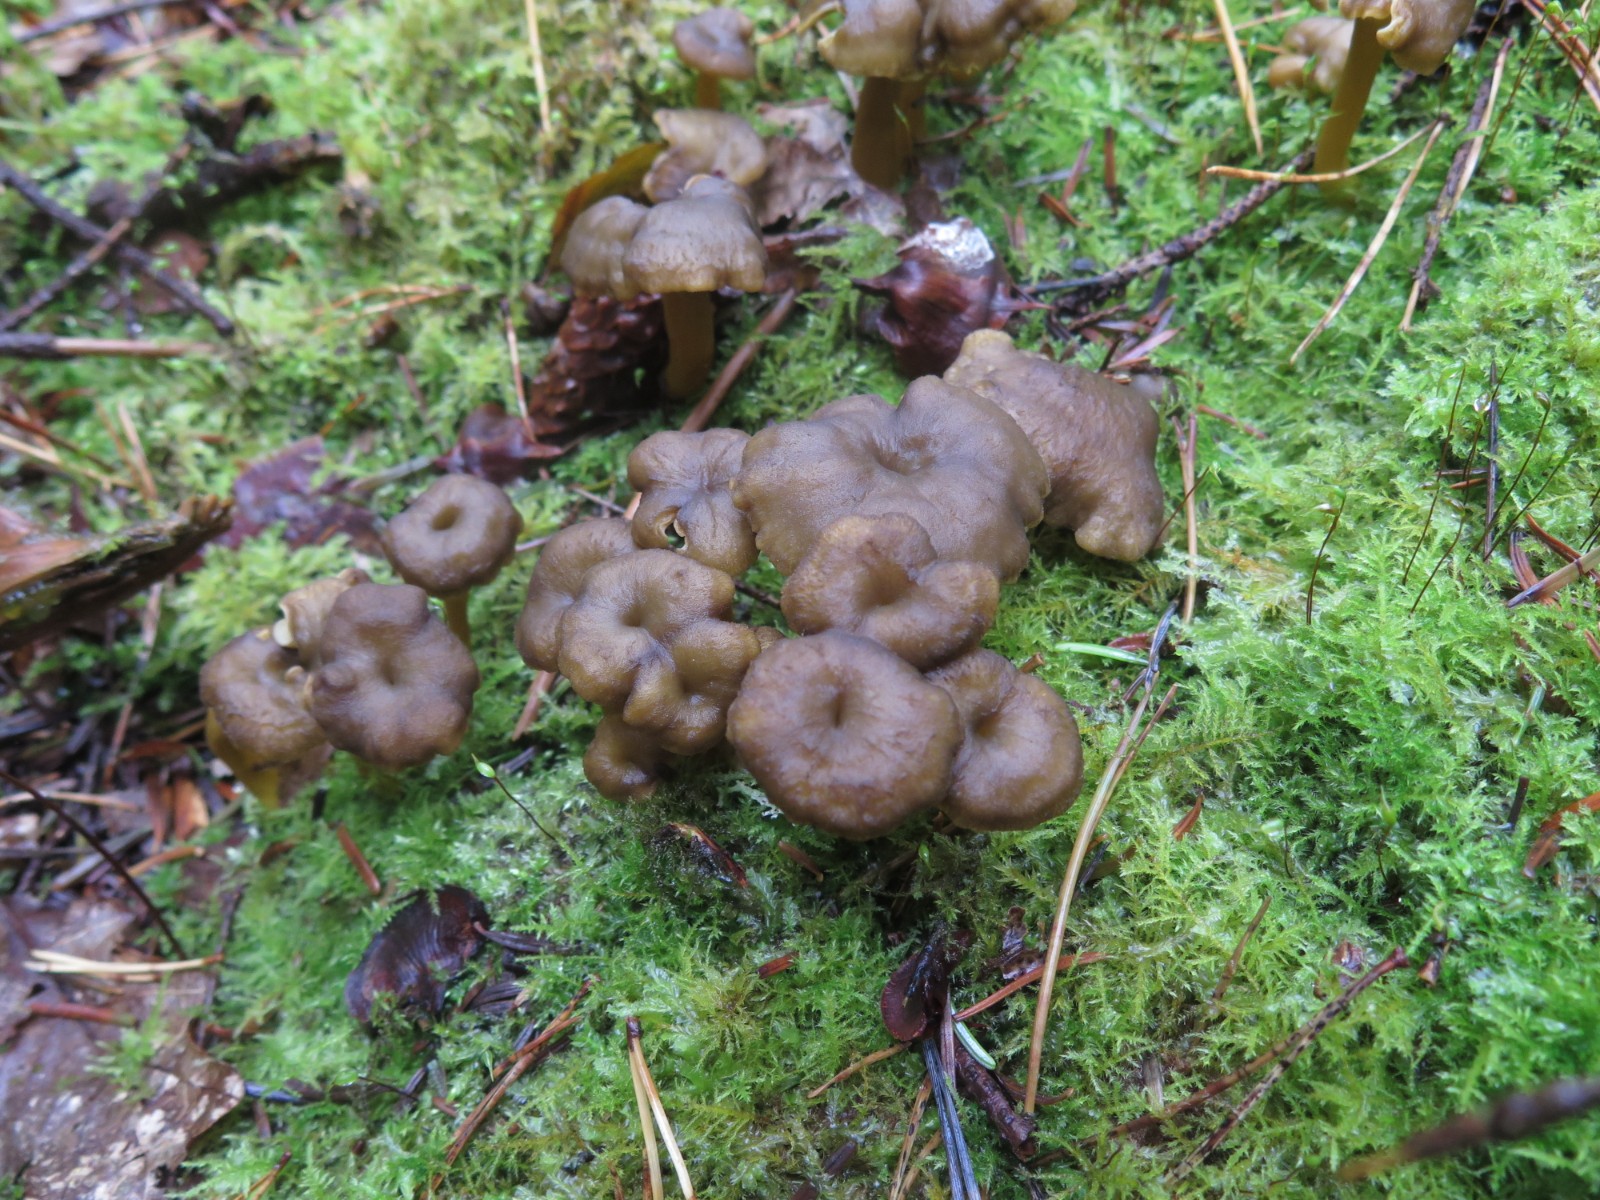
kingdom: Fungi
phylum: Basidiomycota
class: Agaricomycetes
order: Cantharellales
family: Hydnaceae
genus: Craterellus
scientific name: Craterellus tubaeformis
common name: tragt-kantarel
